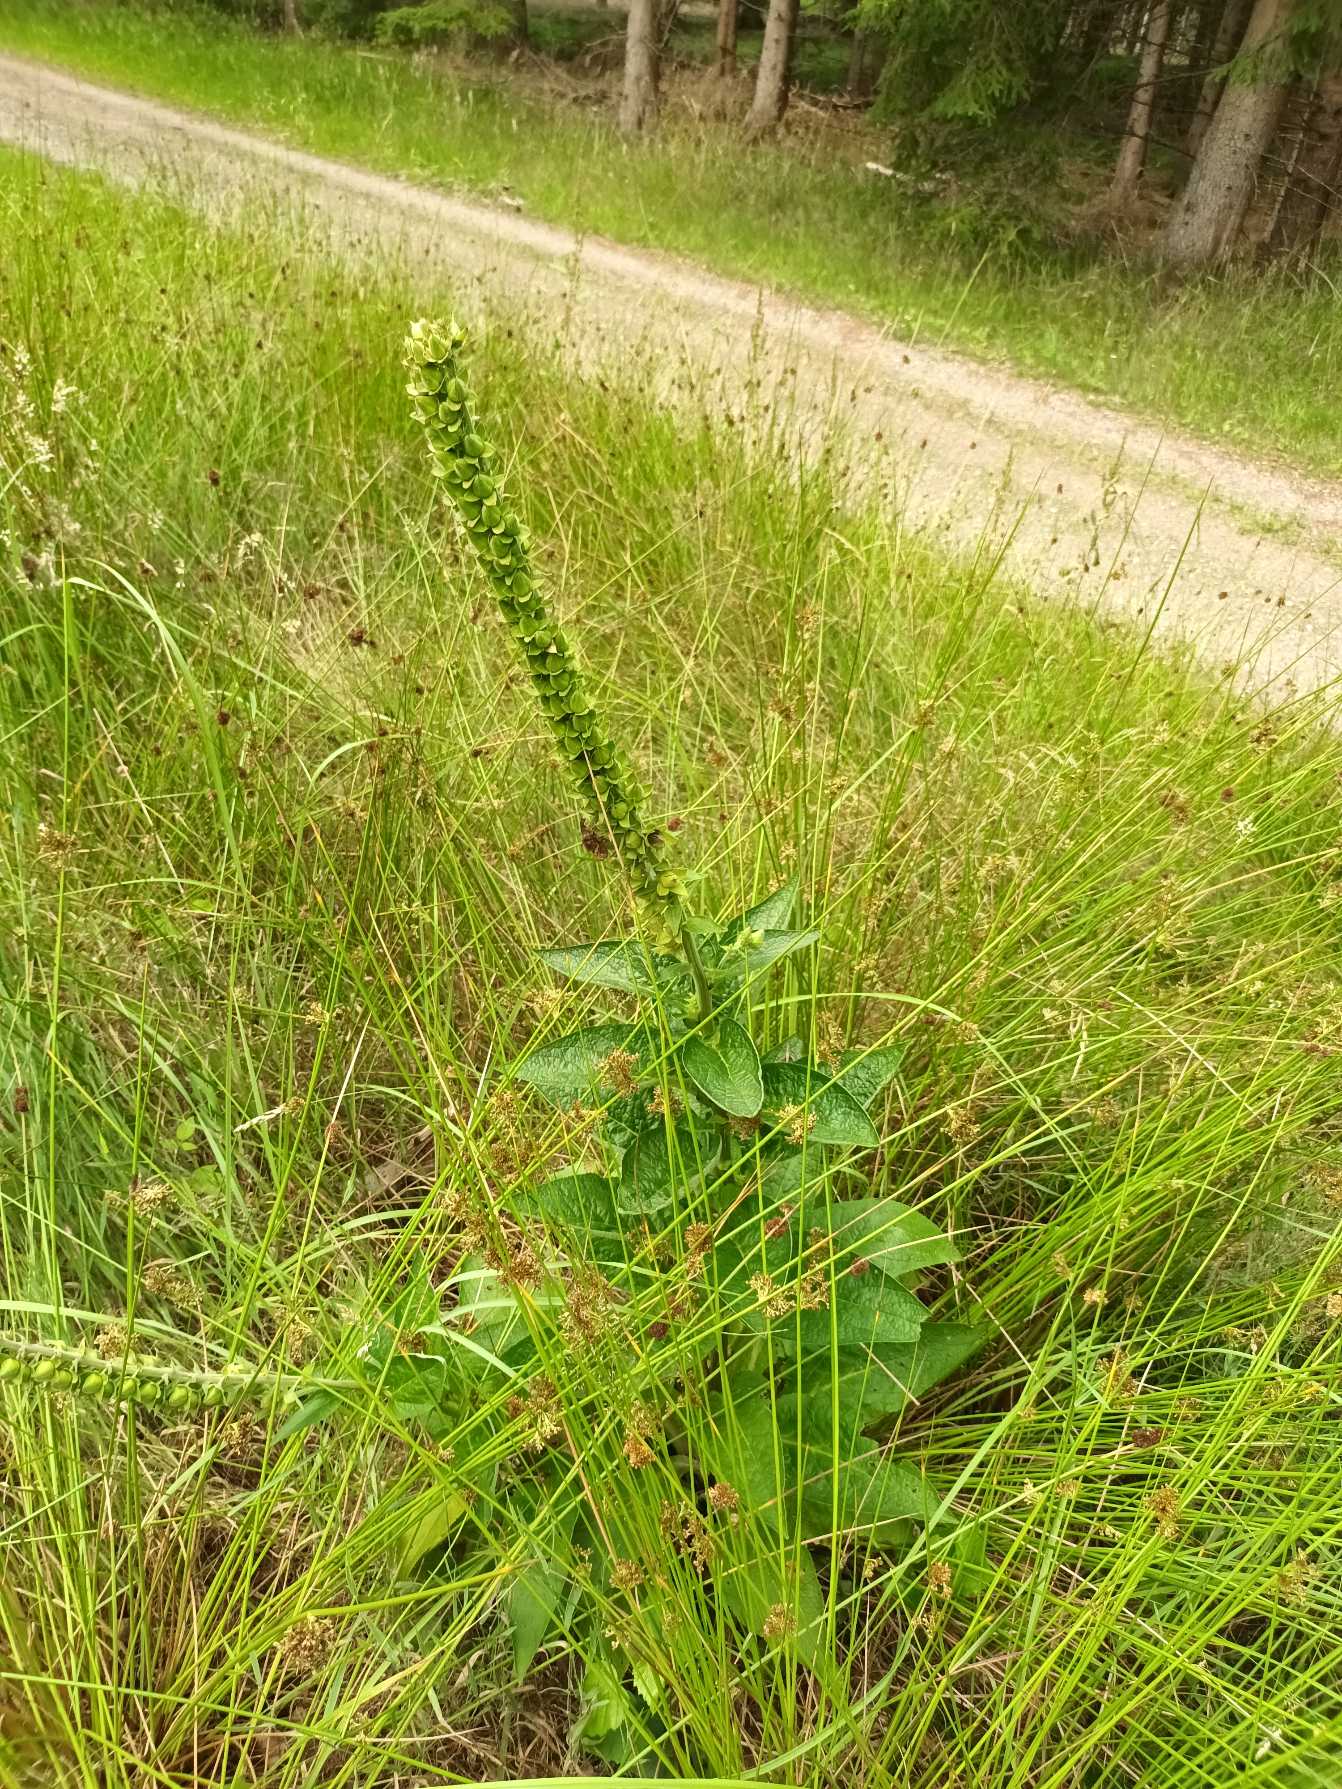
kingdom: Plantae
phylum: Tracheophyta
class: Magnoliopsida
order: Lamiales
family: Plantaginaceae
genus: Digitalis
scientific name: Digitalis purpurea
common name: Almindelig fingerbøl
